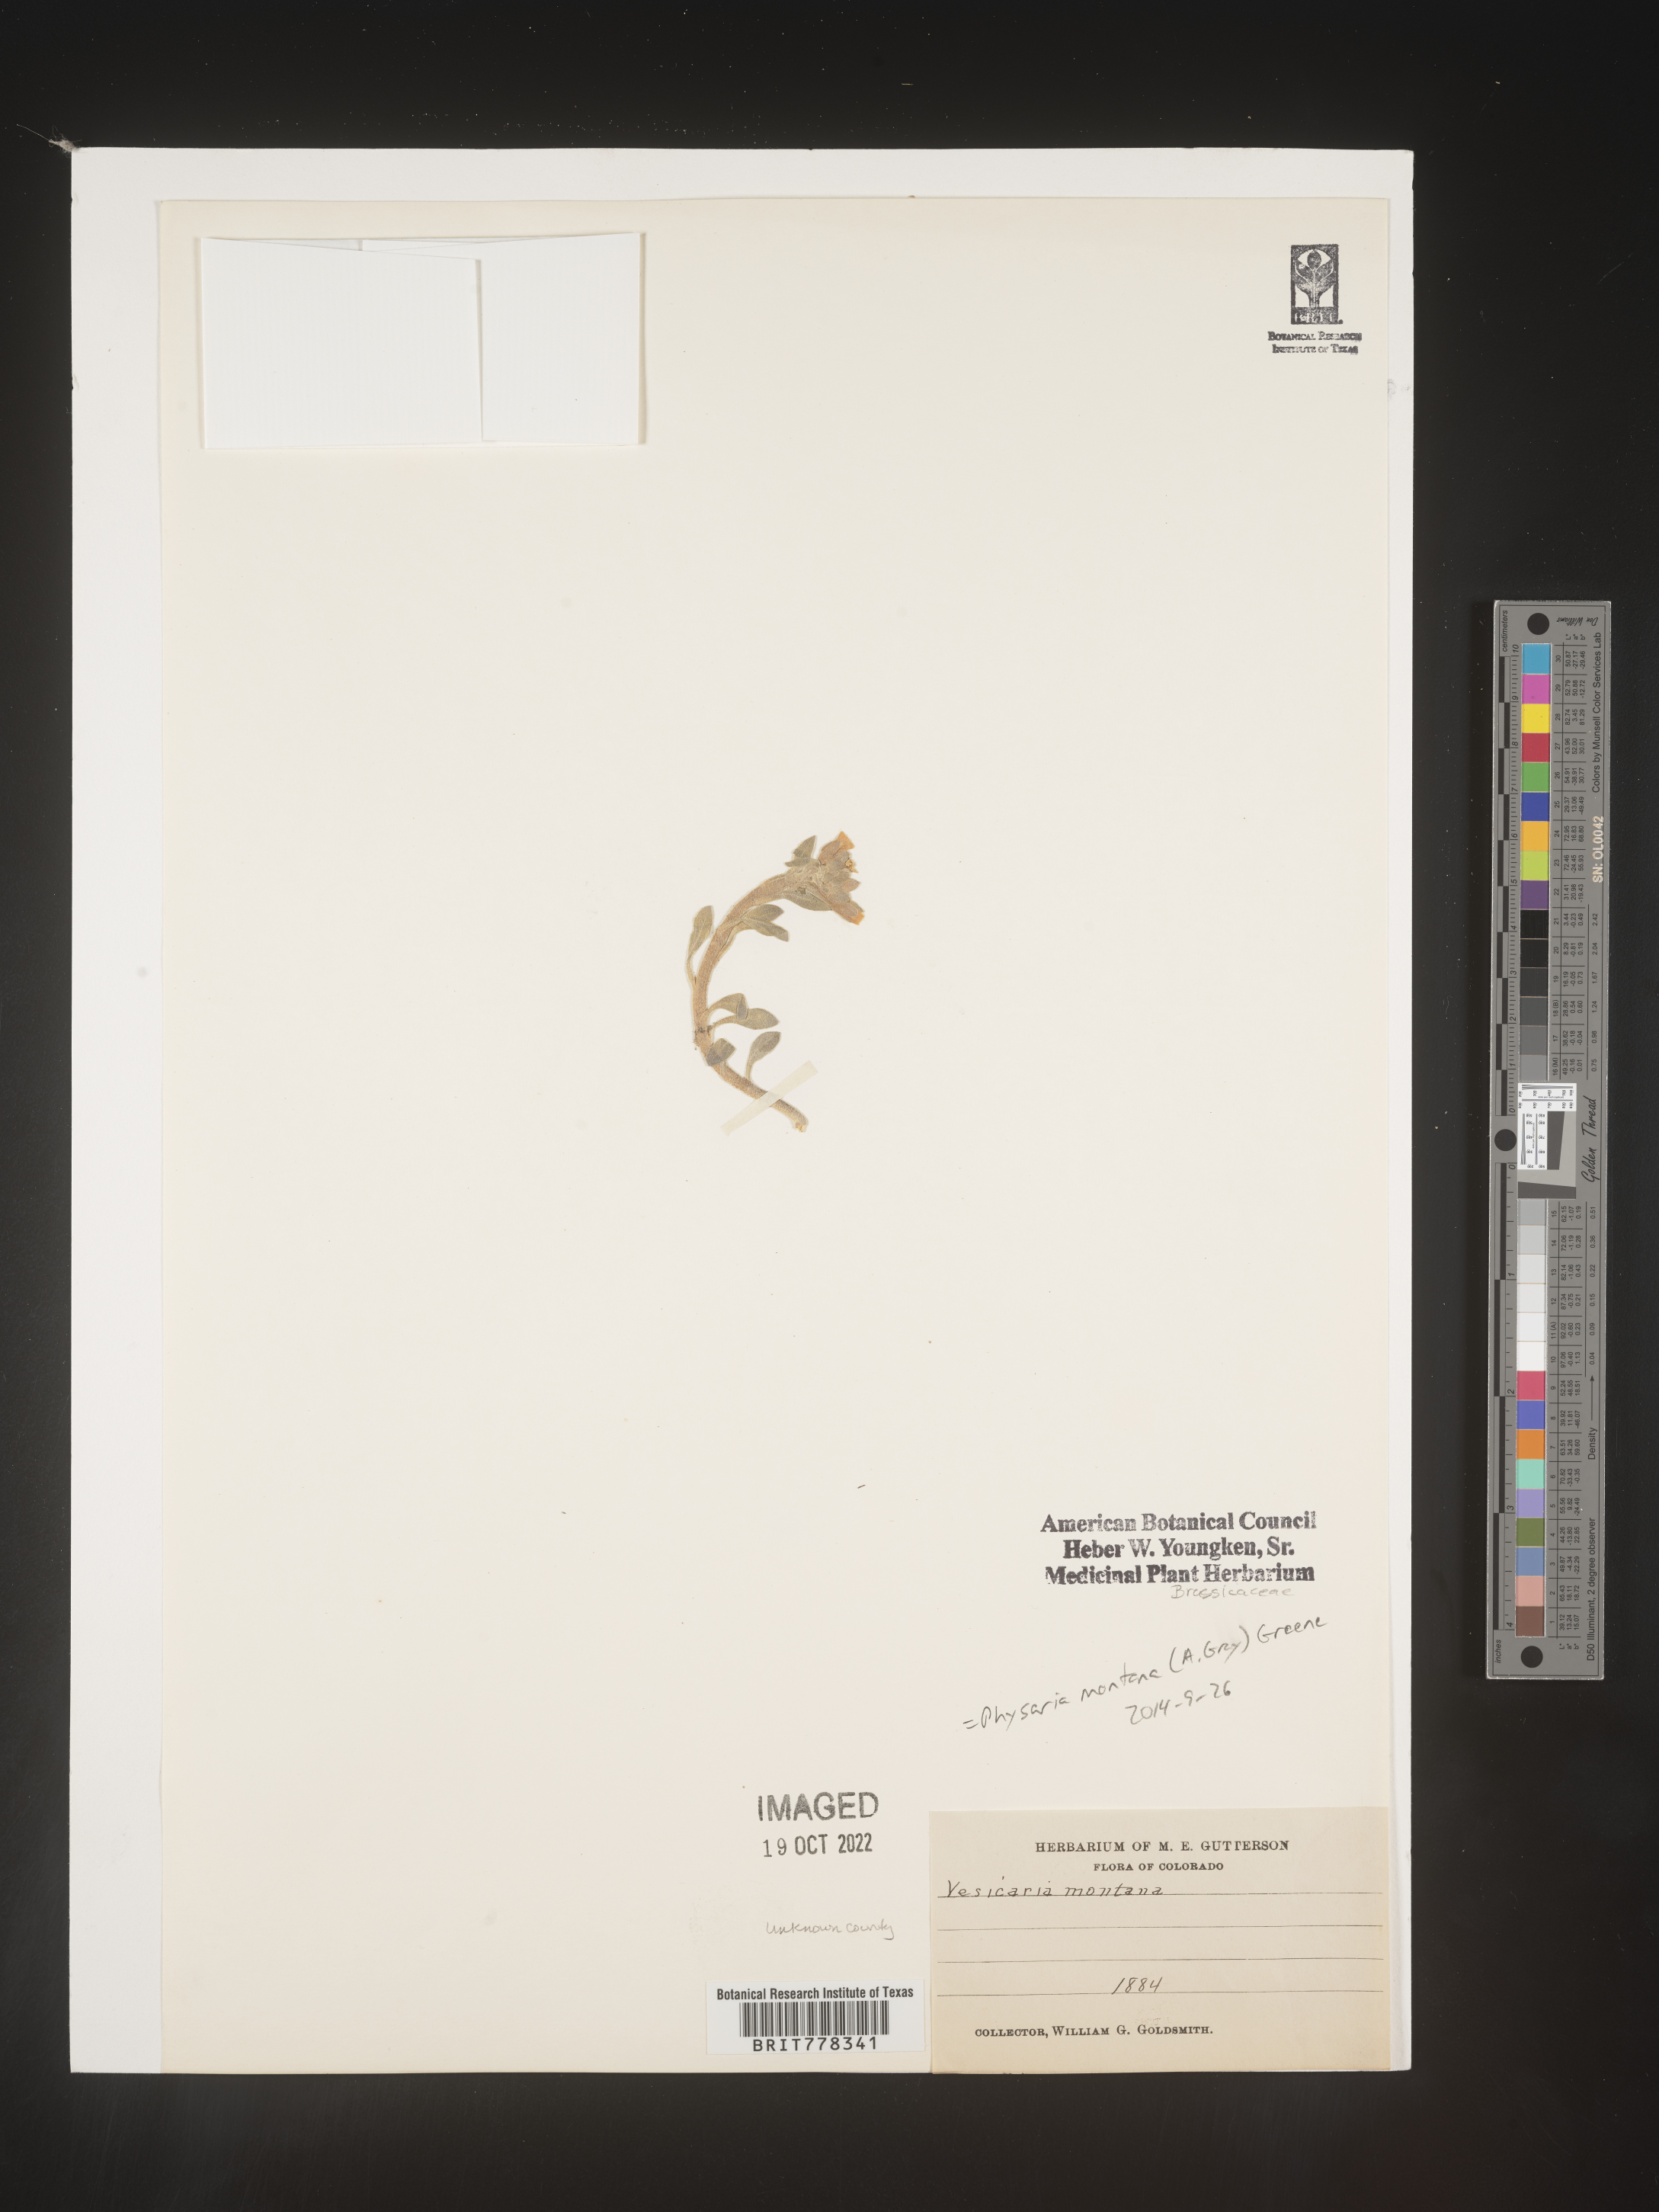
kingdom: Plantae
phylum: Tracheophyta
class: Magnoliopsida
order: Brassicales
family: Brassicaceae
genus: Physaria
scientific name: Physaria
